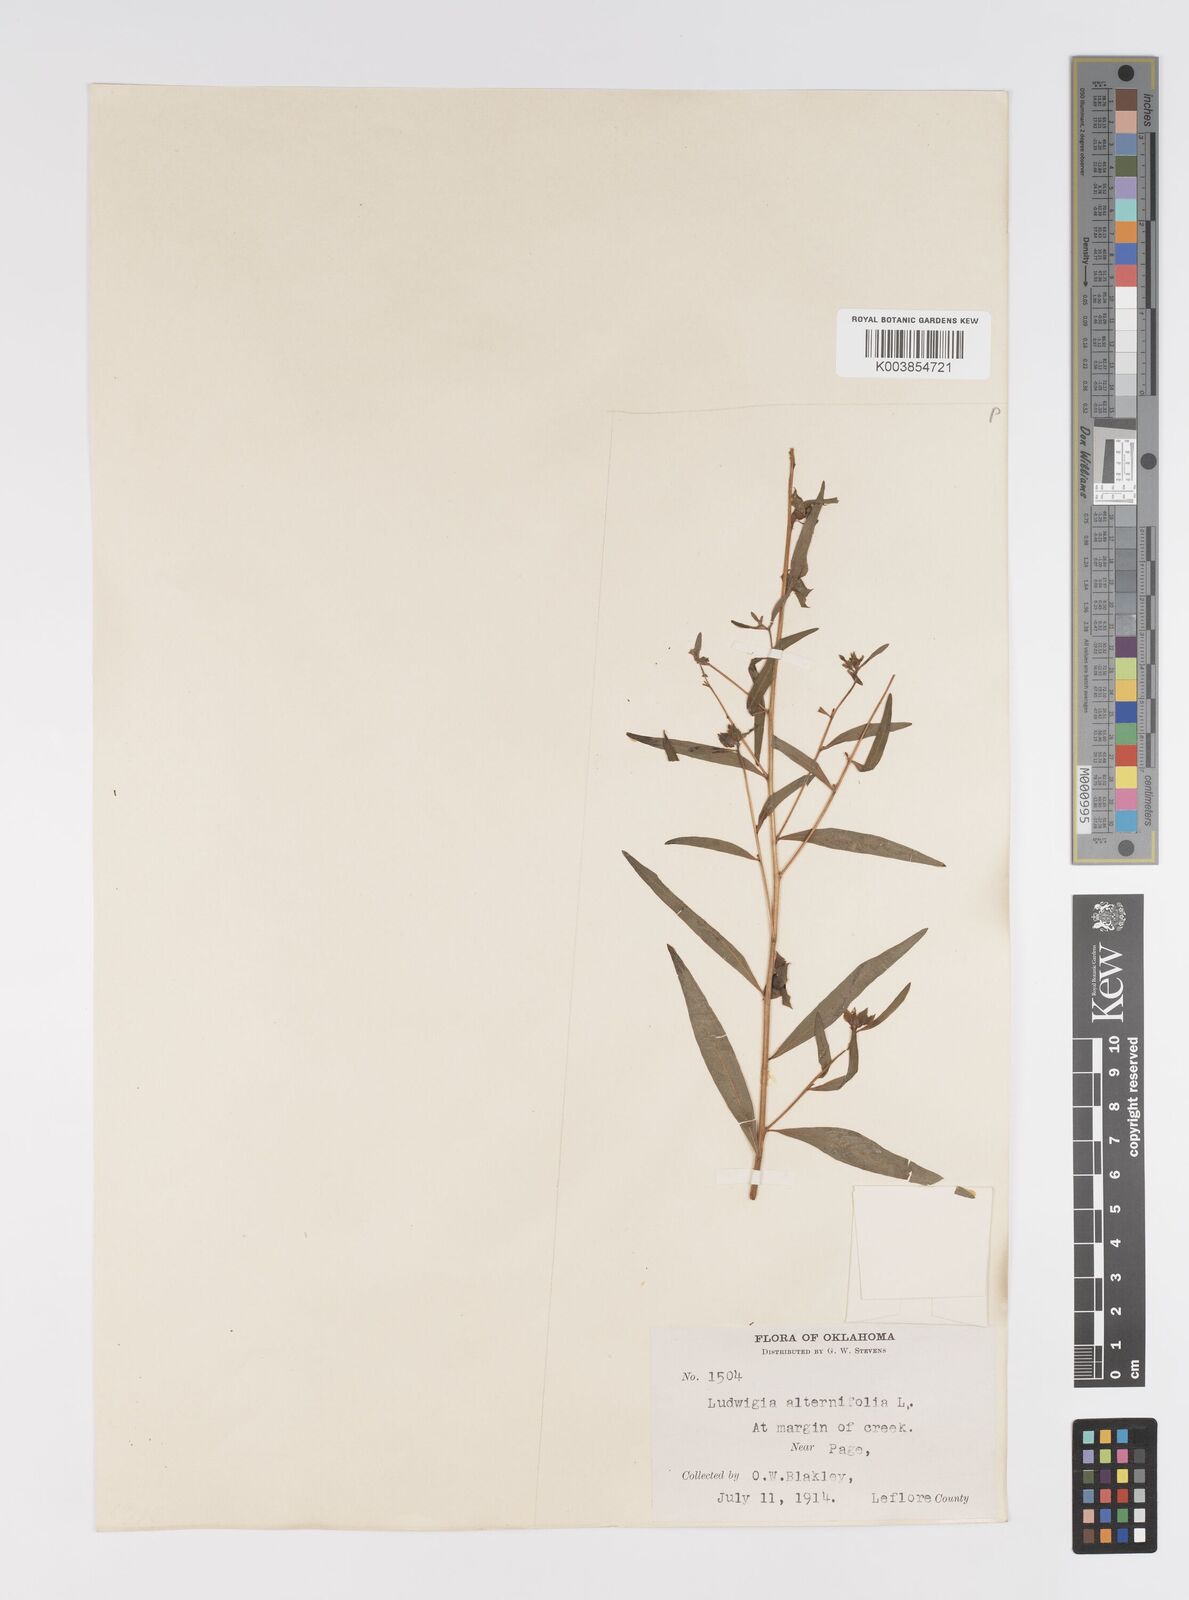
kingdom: Plantae
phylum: Tracheophyta
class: Magnoliopsida
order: Myrtales
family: Onagraceae
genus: Ludwigia
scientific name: Ludwigia alternifolia
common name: Rattlebox
